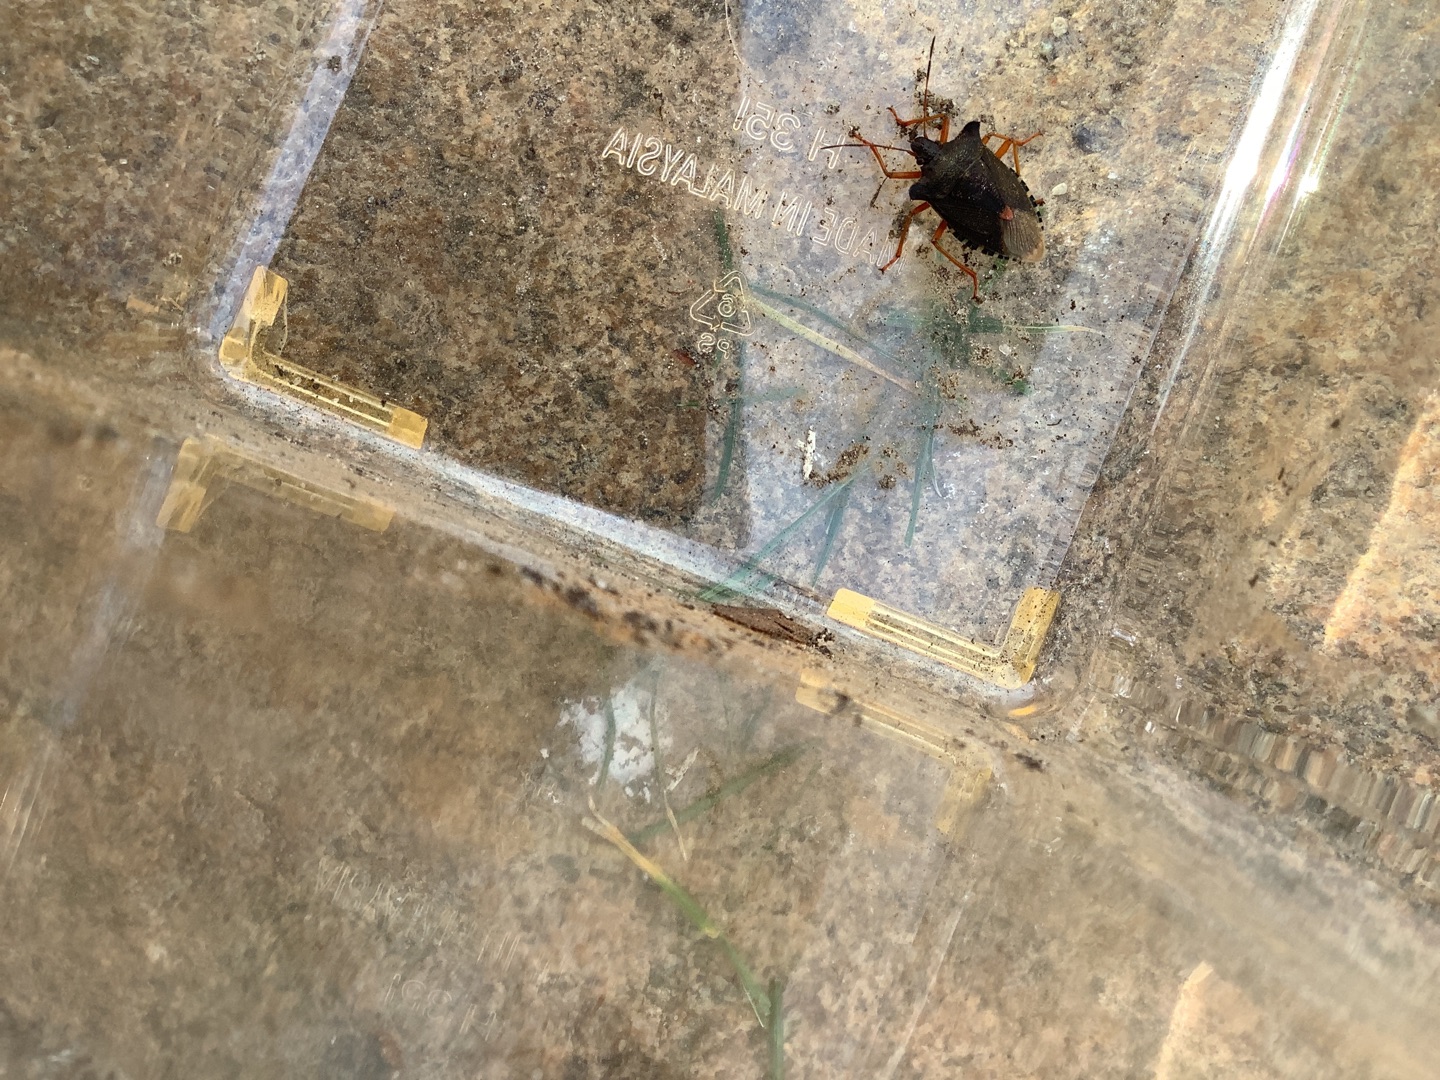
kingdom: Animalia
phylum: Arthropoda
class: Insecta
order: Hemiptera
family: Pentatomidae
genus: Pentatoma
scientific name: Pentatoma rufipes
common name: Rødbenet bredtæge
